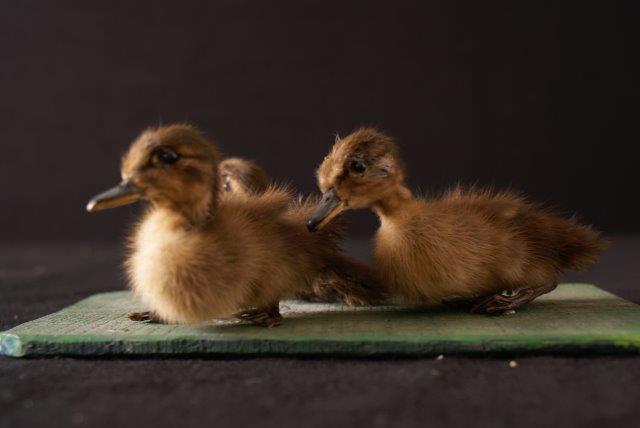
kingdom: Animalia
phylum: Chordata
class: Aves
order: Anseriformes
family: Anatidae
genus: Anas
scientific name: Anas platyrhynchos
